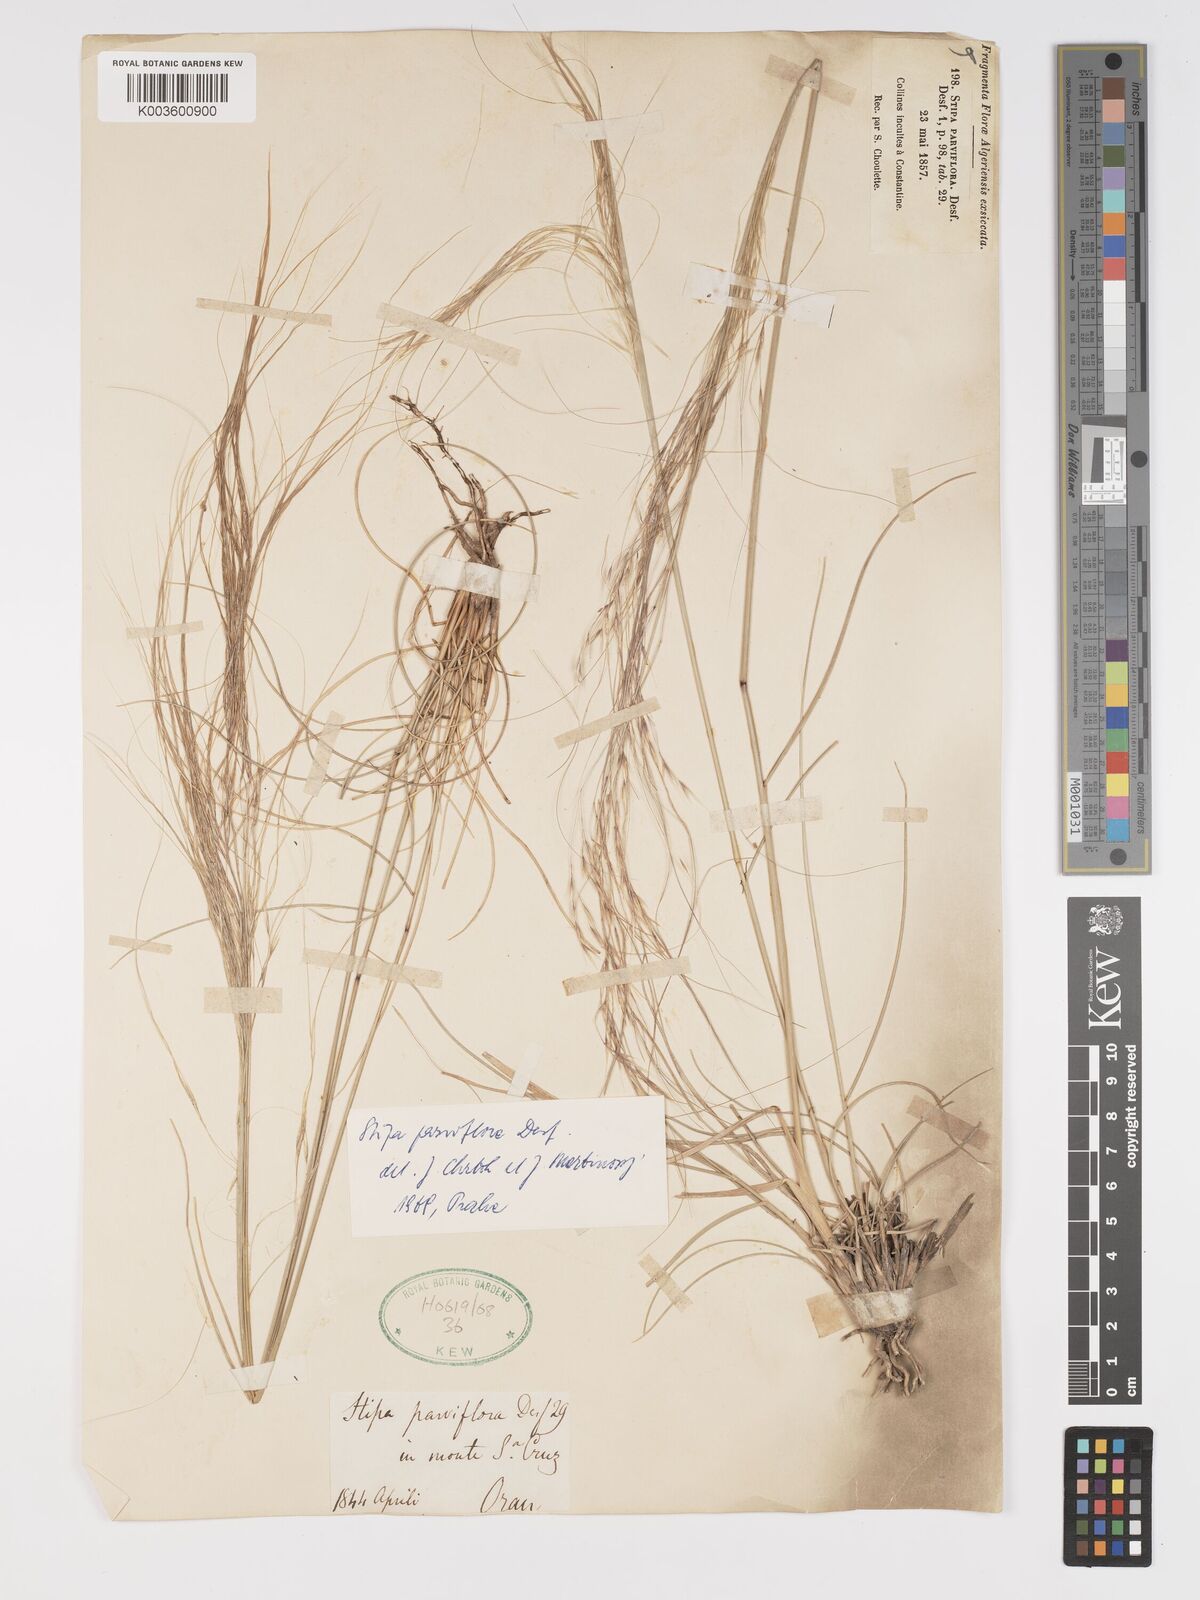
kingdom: Plantae
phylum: Tracheophyta
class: Liliopsida
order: Poales
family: Poaceae
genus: Achnatherum
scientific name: Achnatherum parviflorum
